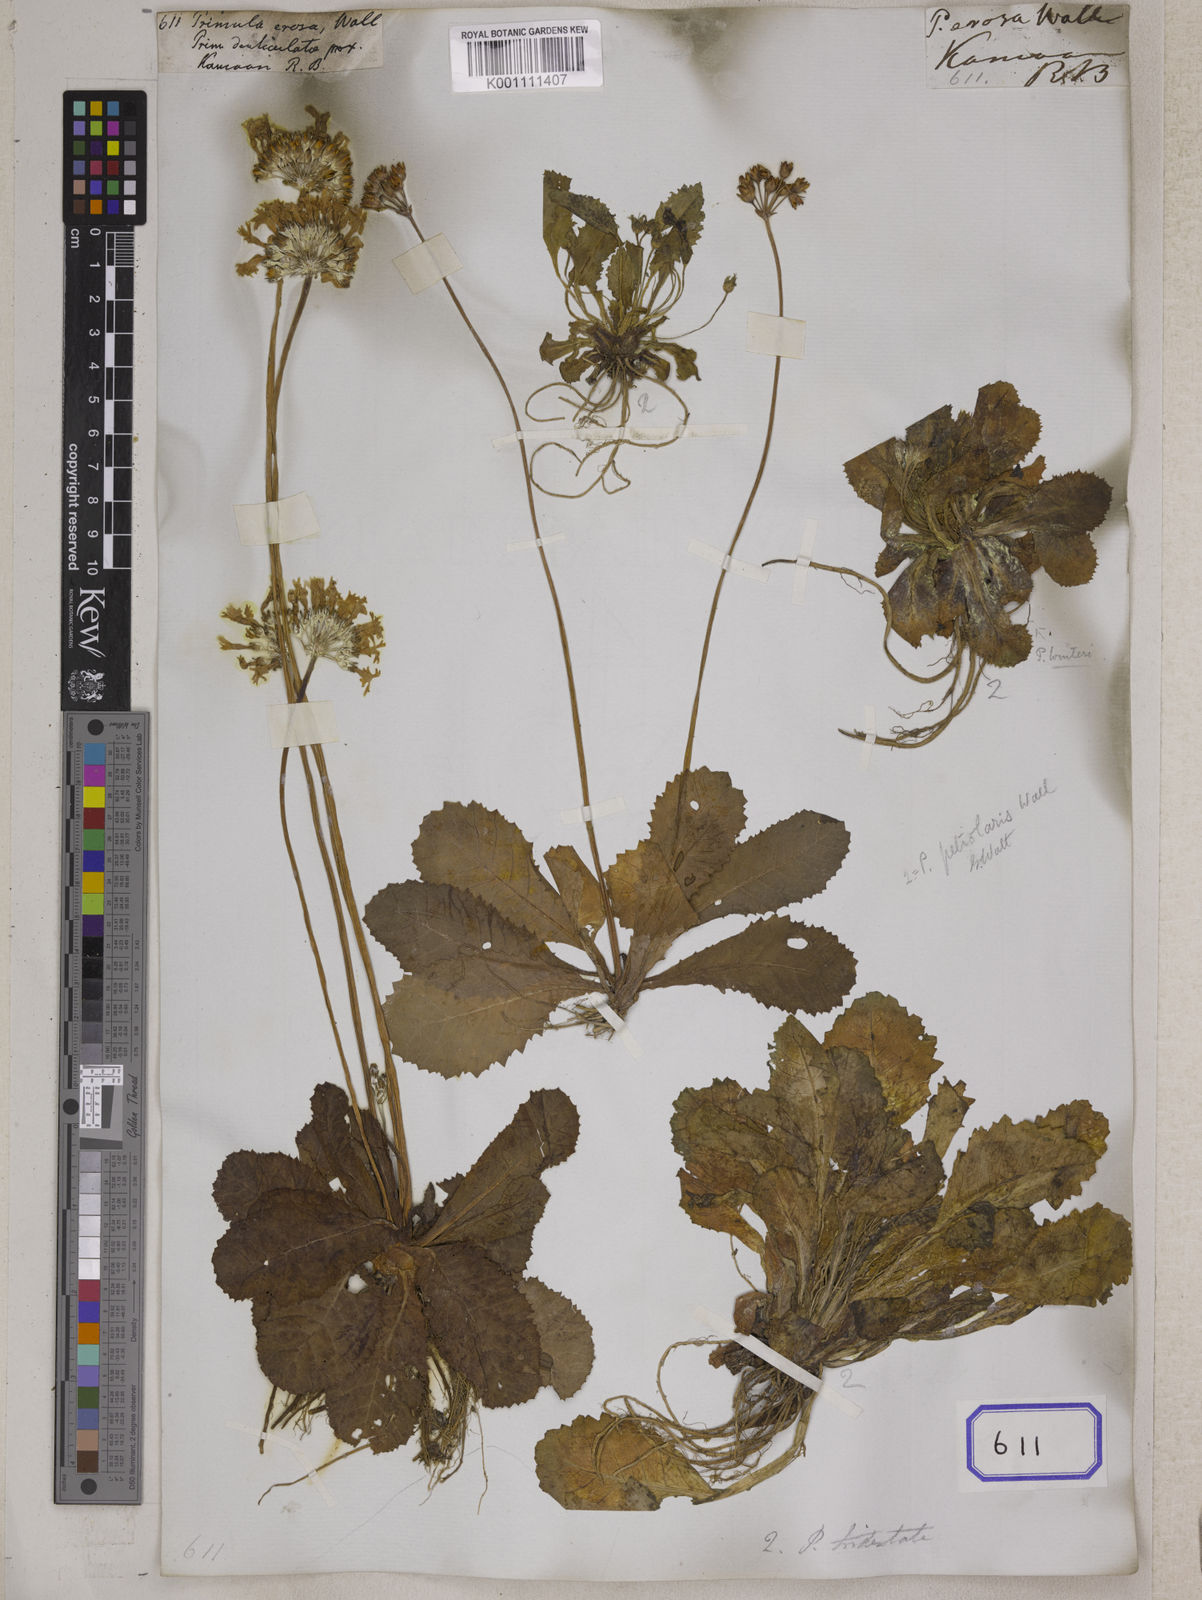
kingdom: Plantae
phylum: Tracheophyta
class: Magnoliopsida
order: Ericales
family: Primulaceae
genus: Primula
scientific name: Primula
